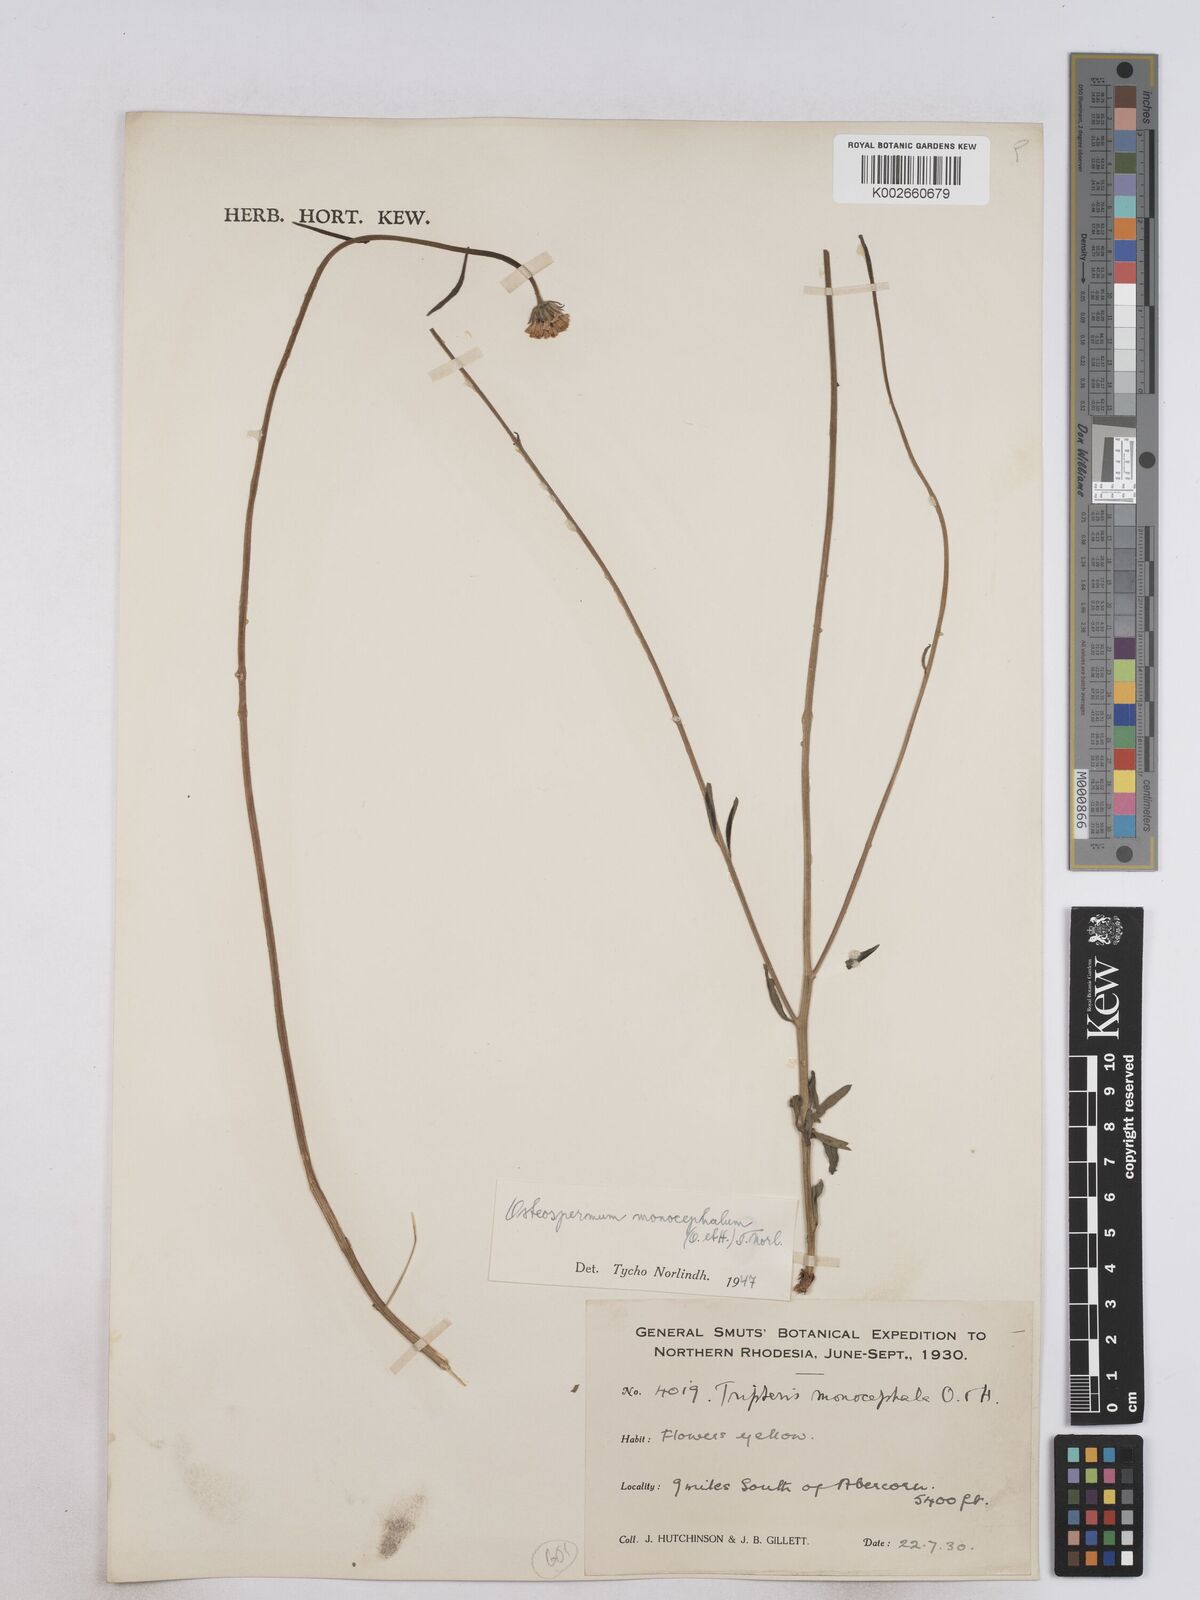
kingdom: Plantae
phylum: Tracheophyta
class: Magnoliopsida
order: Asterales
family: Asteraceae
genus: Osteospermum
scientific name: Osteospermum monocephalum
